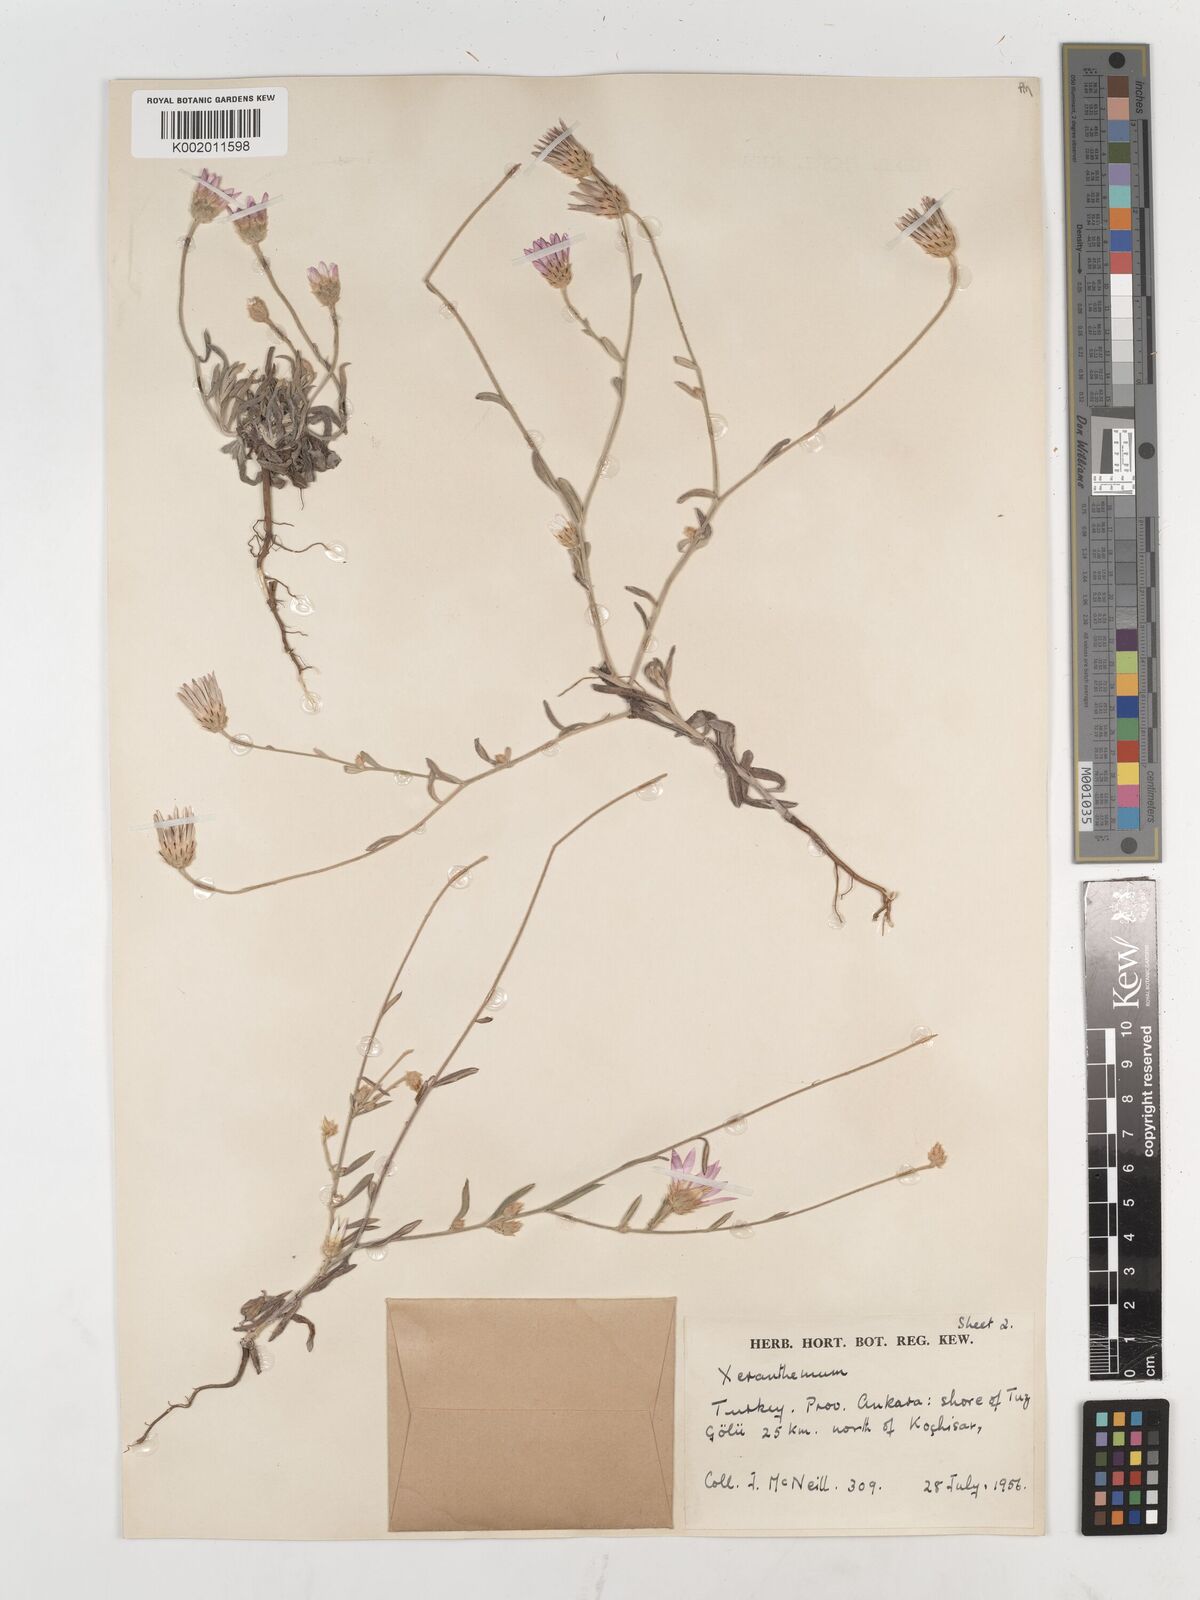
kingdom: Plantae
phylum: Tracheophyta
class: Magnoliopsida
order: Asterales
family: Asteraceae
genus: Xeranthemum
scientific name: Xeranthemum annuum
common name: Immortelle
